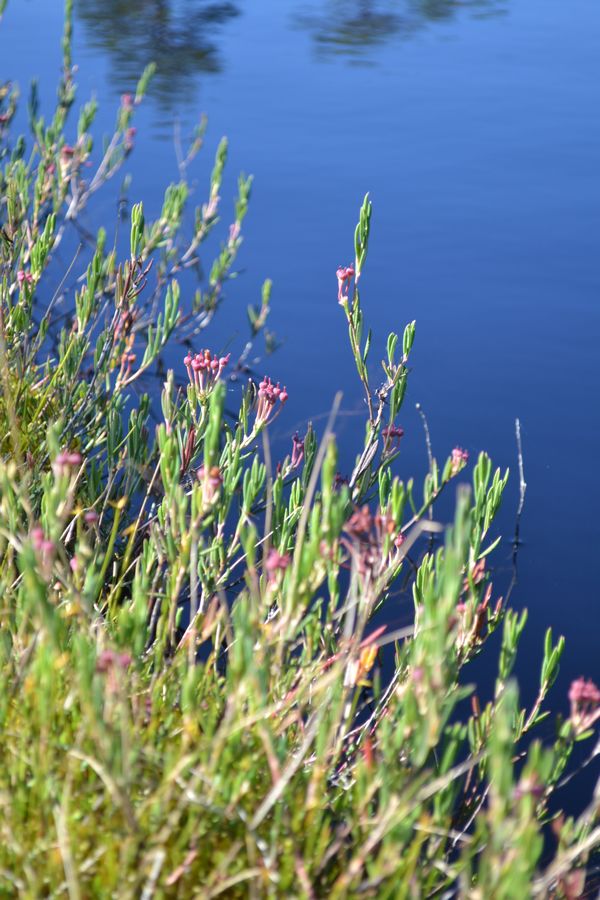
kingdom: Plantae
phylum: Tracheophyta
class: Magnoliopsida
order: Ericales
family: Ericaceae
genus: Andromeda
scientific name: Andromeda polifolia
